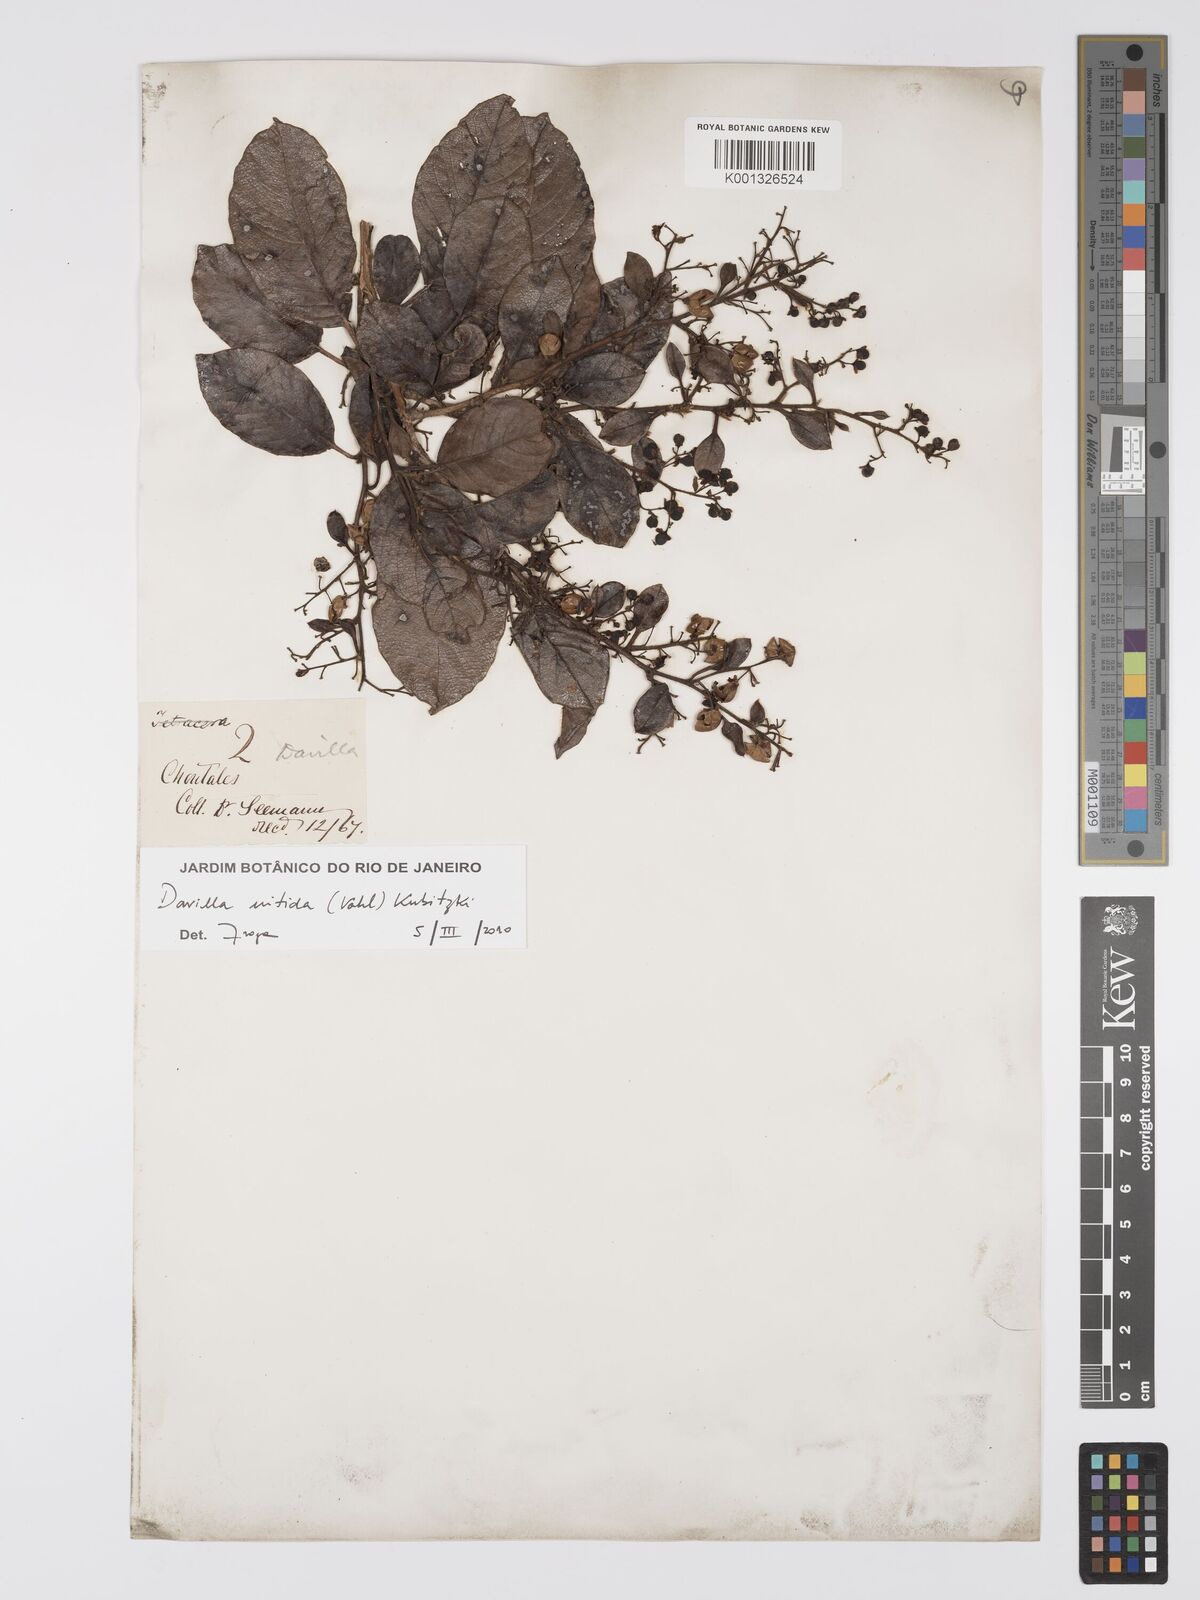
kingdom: Plantae
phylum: Tracheophyta
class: Magnoliopsida
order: Dilleniales
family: Dilleniaceae
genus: Davilla
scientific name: Davilla nitida
